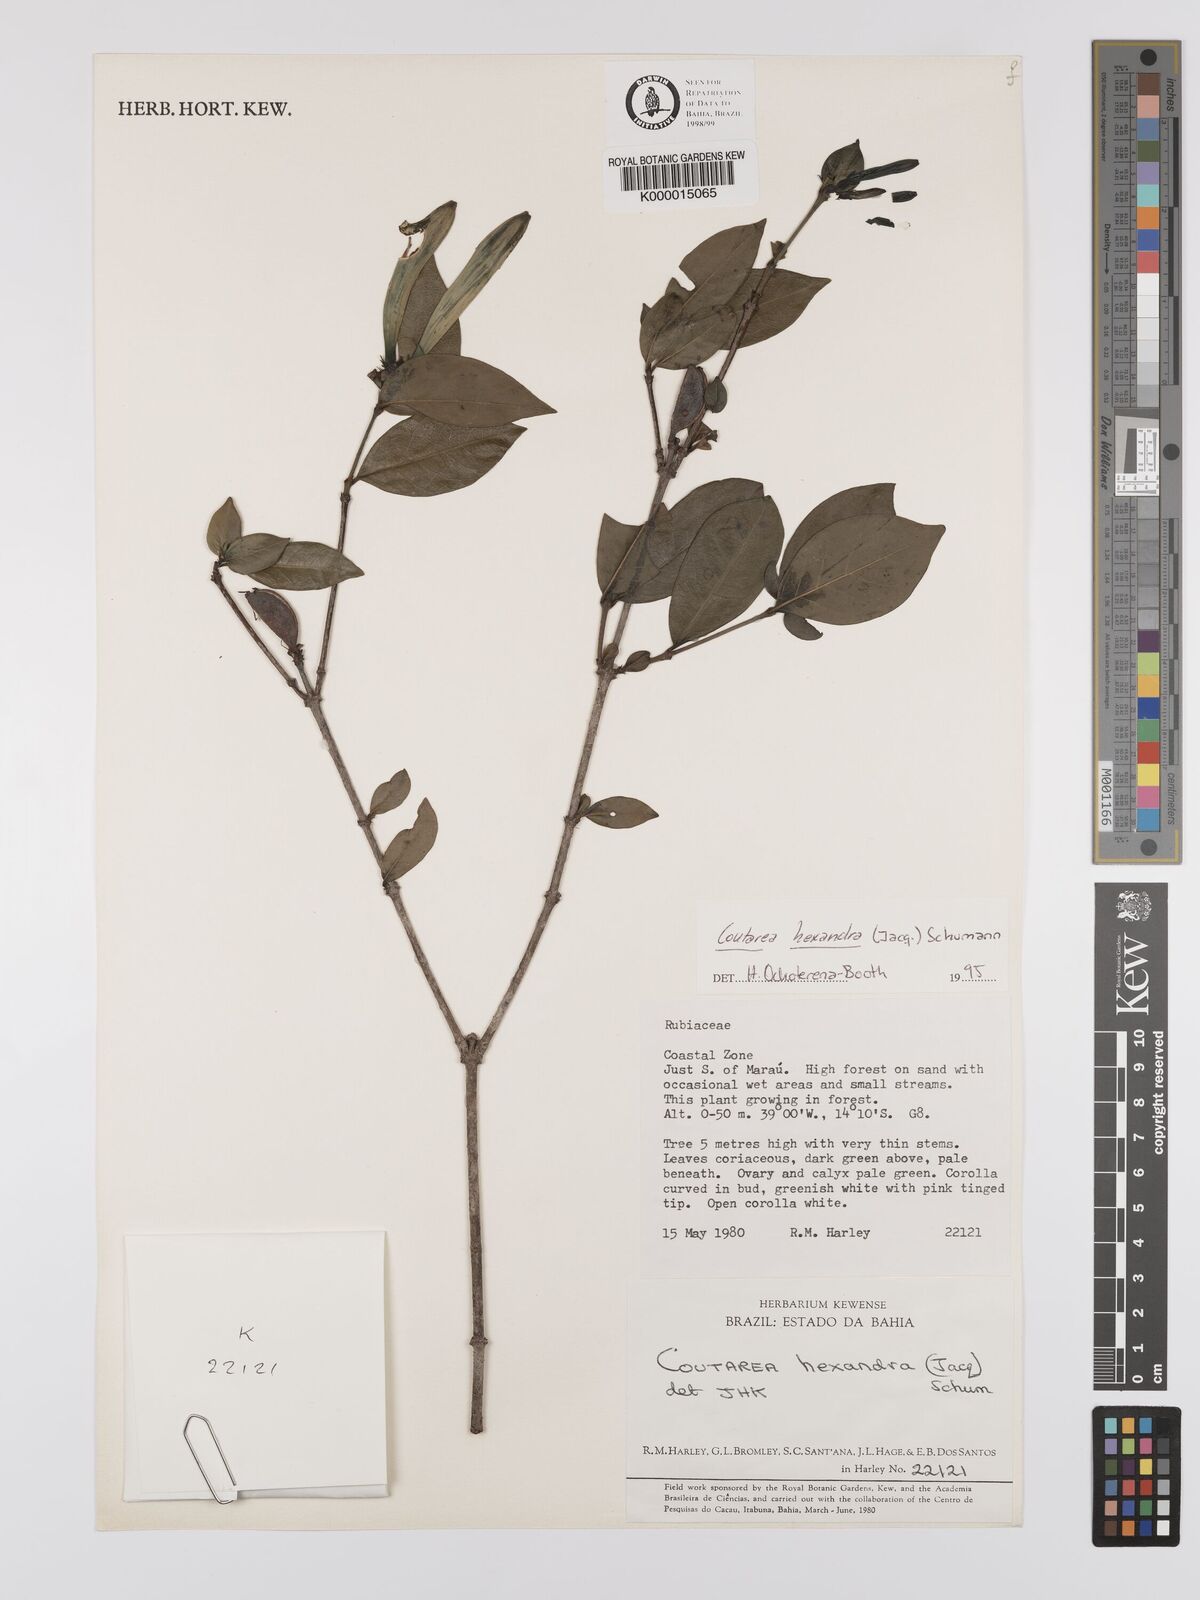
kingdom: Plantae
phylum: Tracheophyta
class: Magnoliopsida
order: Gentianales
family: Rubiaceae
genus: Coutarea
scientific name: Coutarea hexandra
